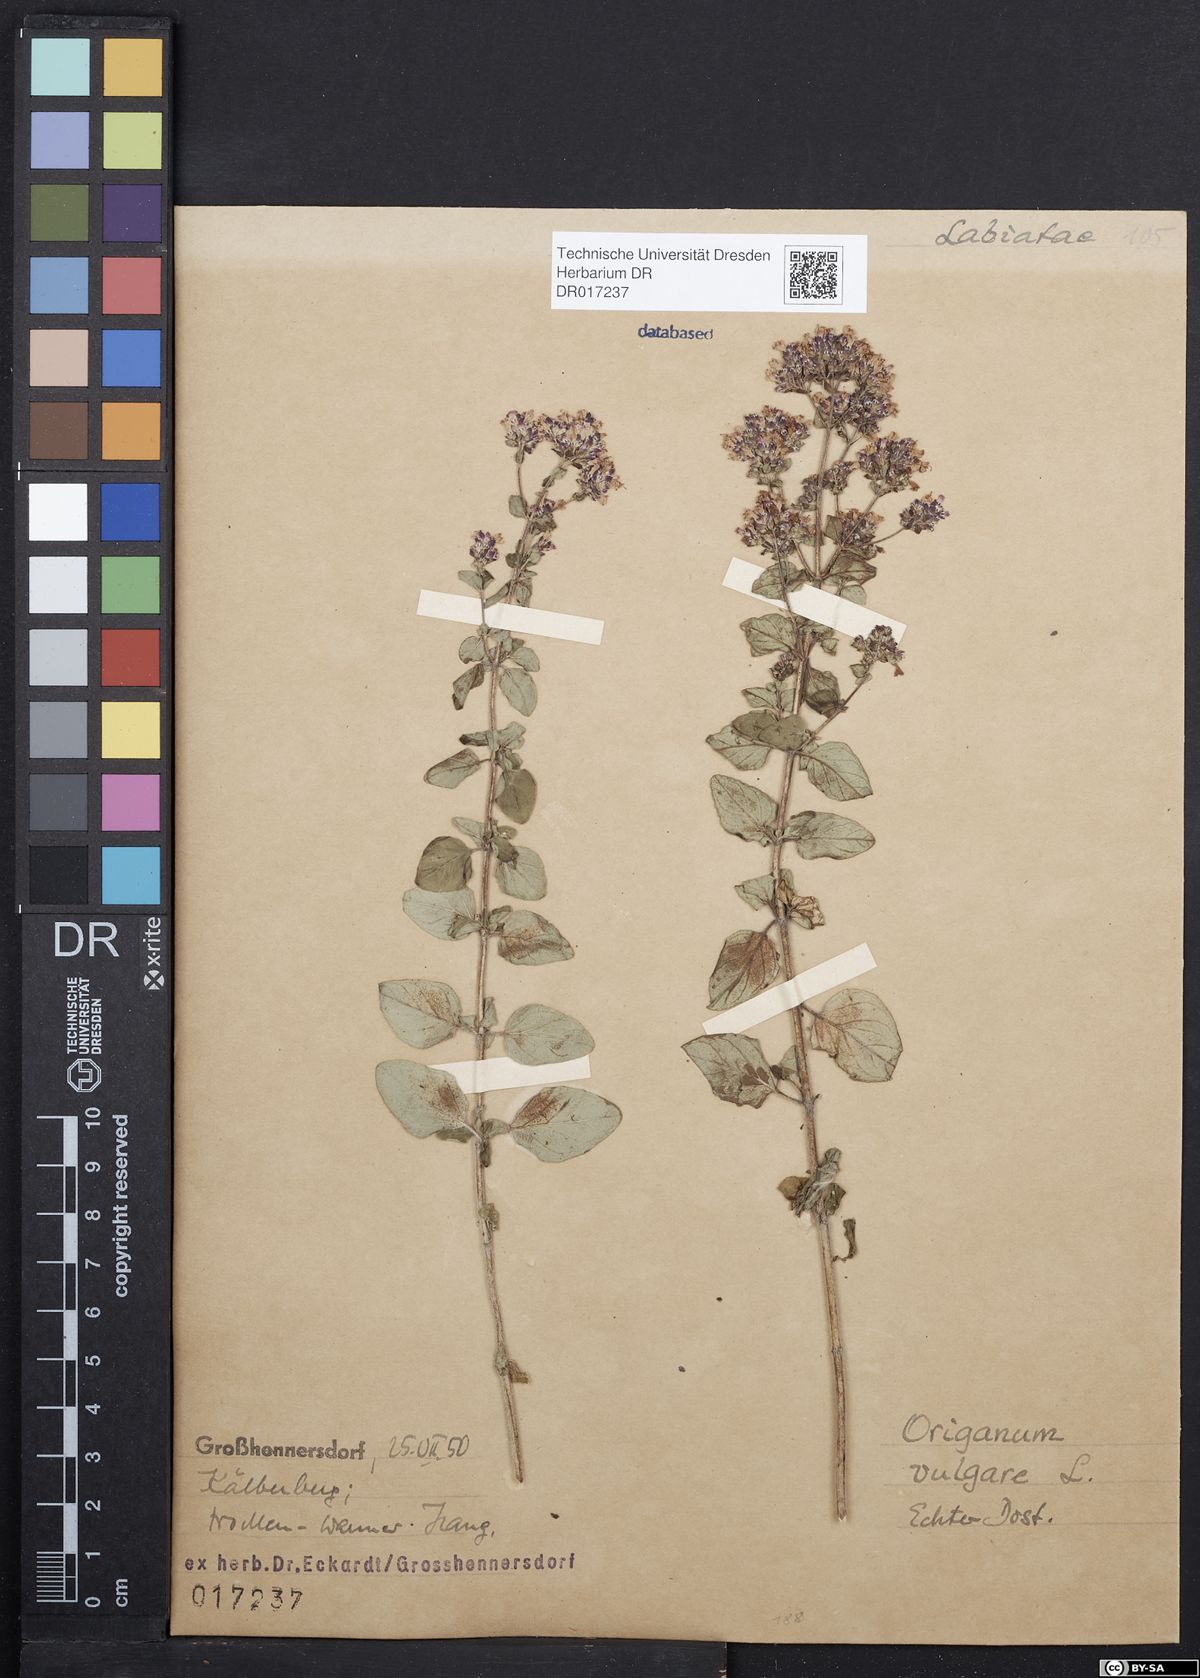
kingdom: Plantae
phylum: Tracheophyta
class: Magnoliopsida
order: Lamiales
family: Lamiaceae
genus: Origanum
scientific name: Origanum vulgare
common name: Wild marjoram
